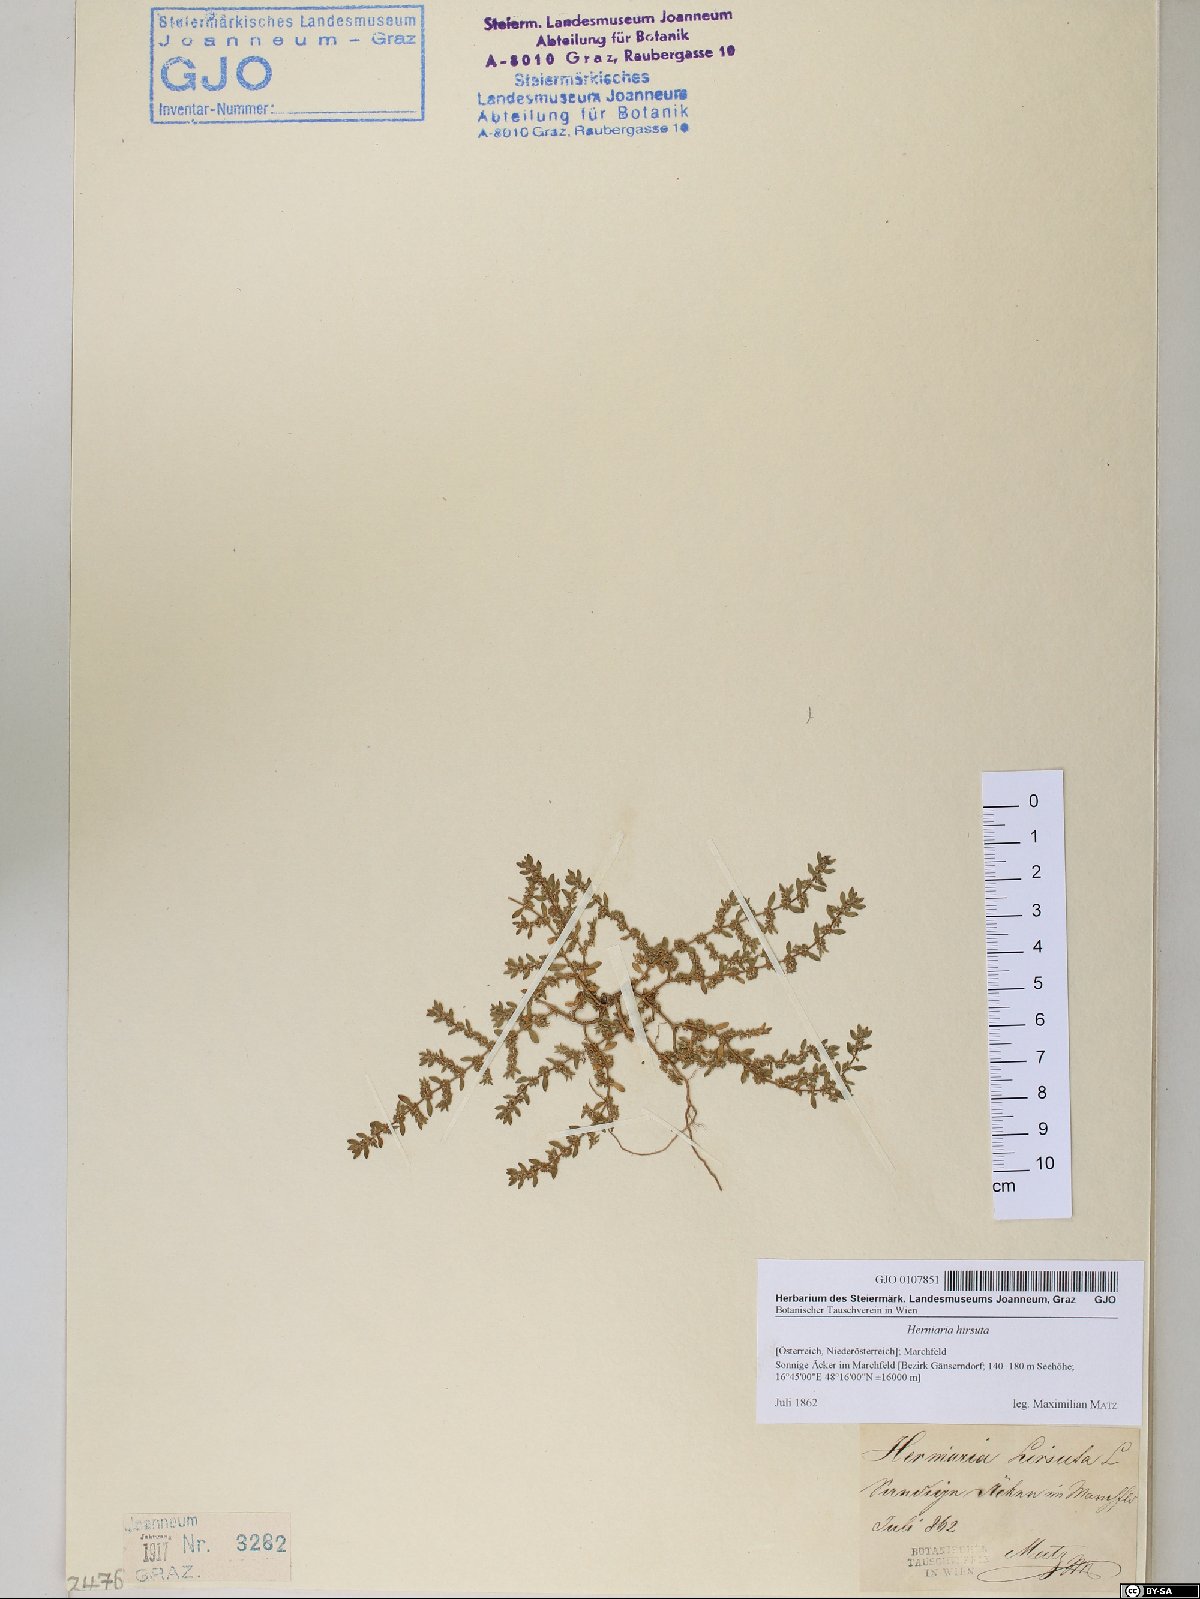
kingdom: Plantae
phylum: Tracheophyta
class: Magnoliopsida
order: Caryophyllales
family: Caryophyllaceae
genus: Herniaria
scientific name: Herniaria hirsuta
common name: Hairy rupturewort
